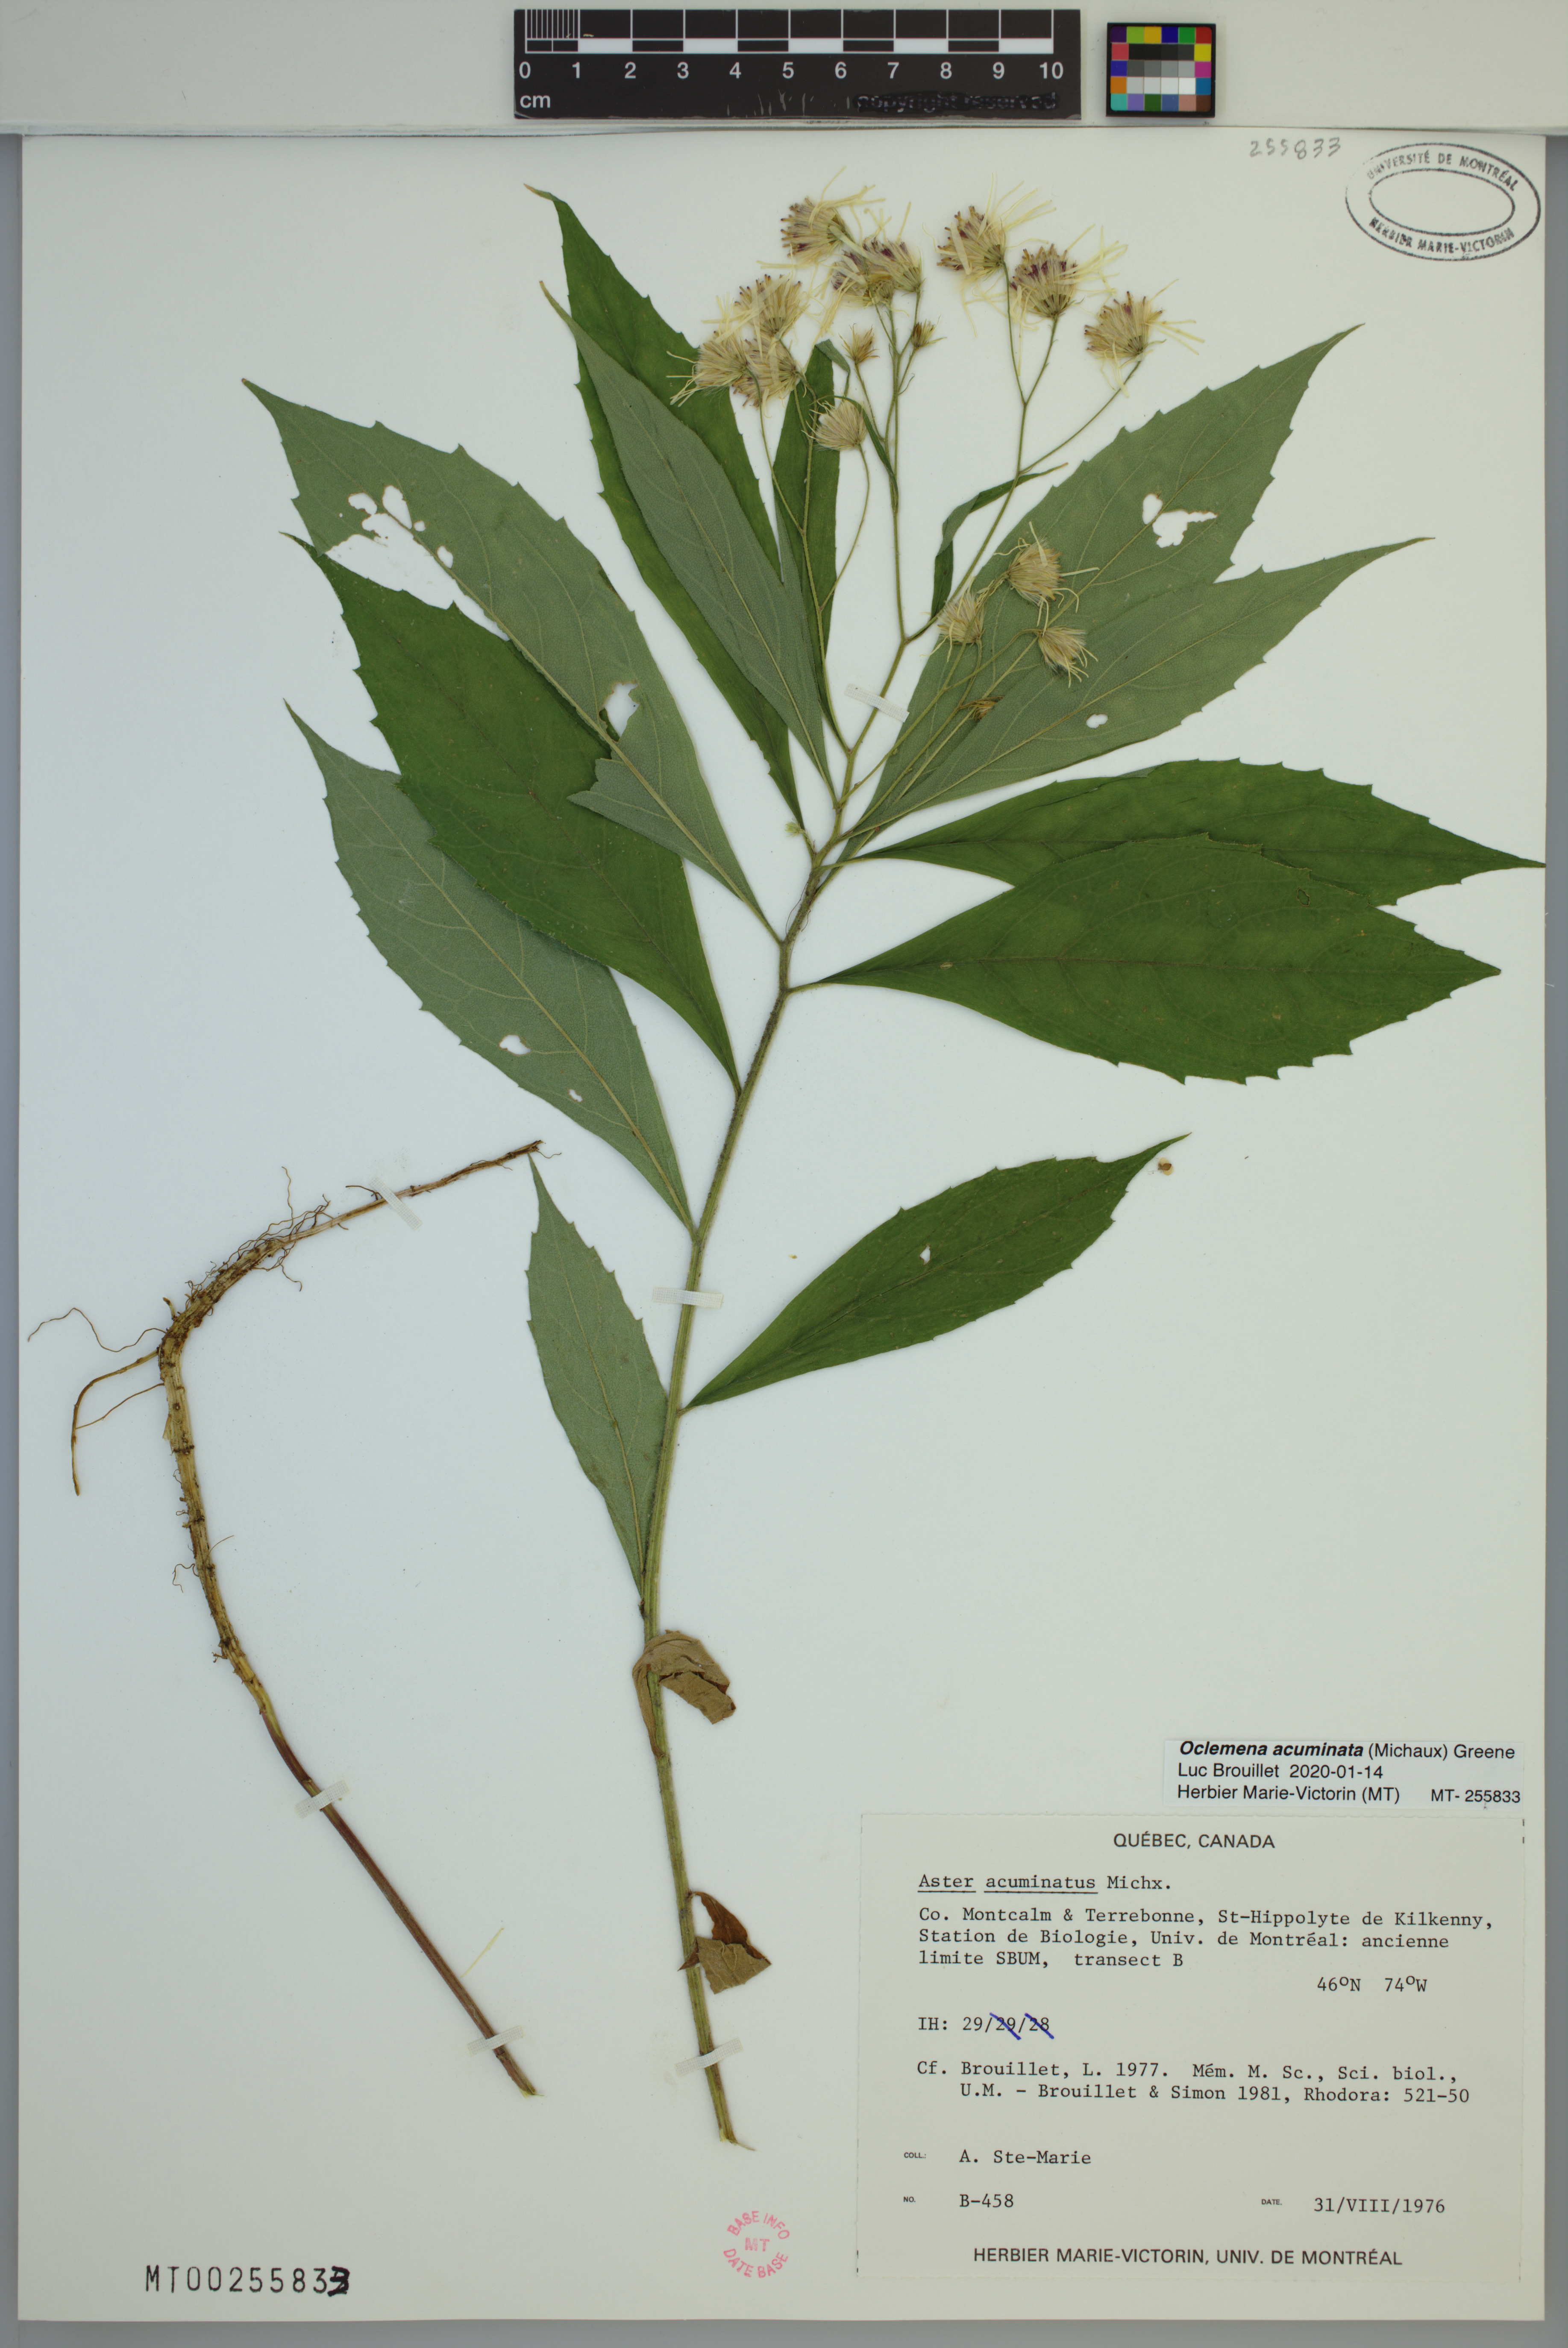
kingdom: Plantae
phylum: Tracheophyta
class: Magnoliopsida
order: Asterales
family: Asteraceae
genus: Oclemena
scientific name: Oclemena acuminata
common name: Mountain aster
